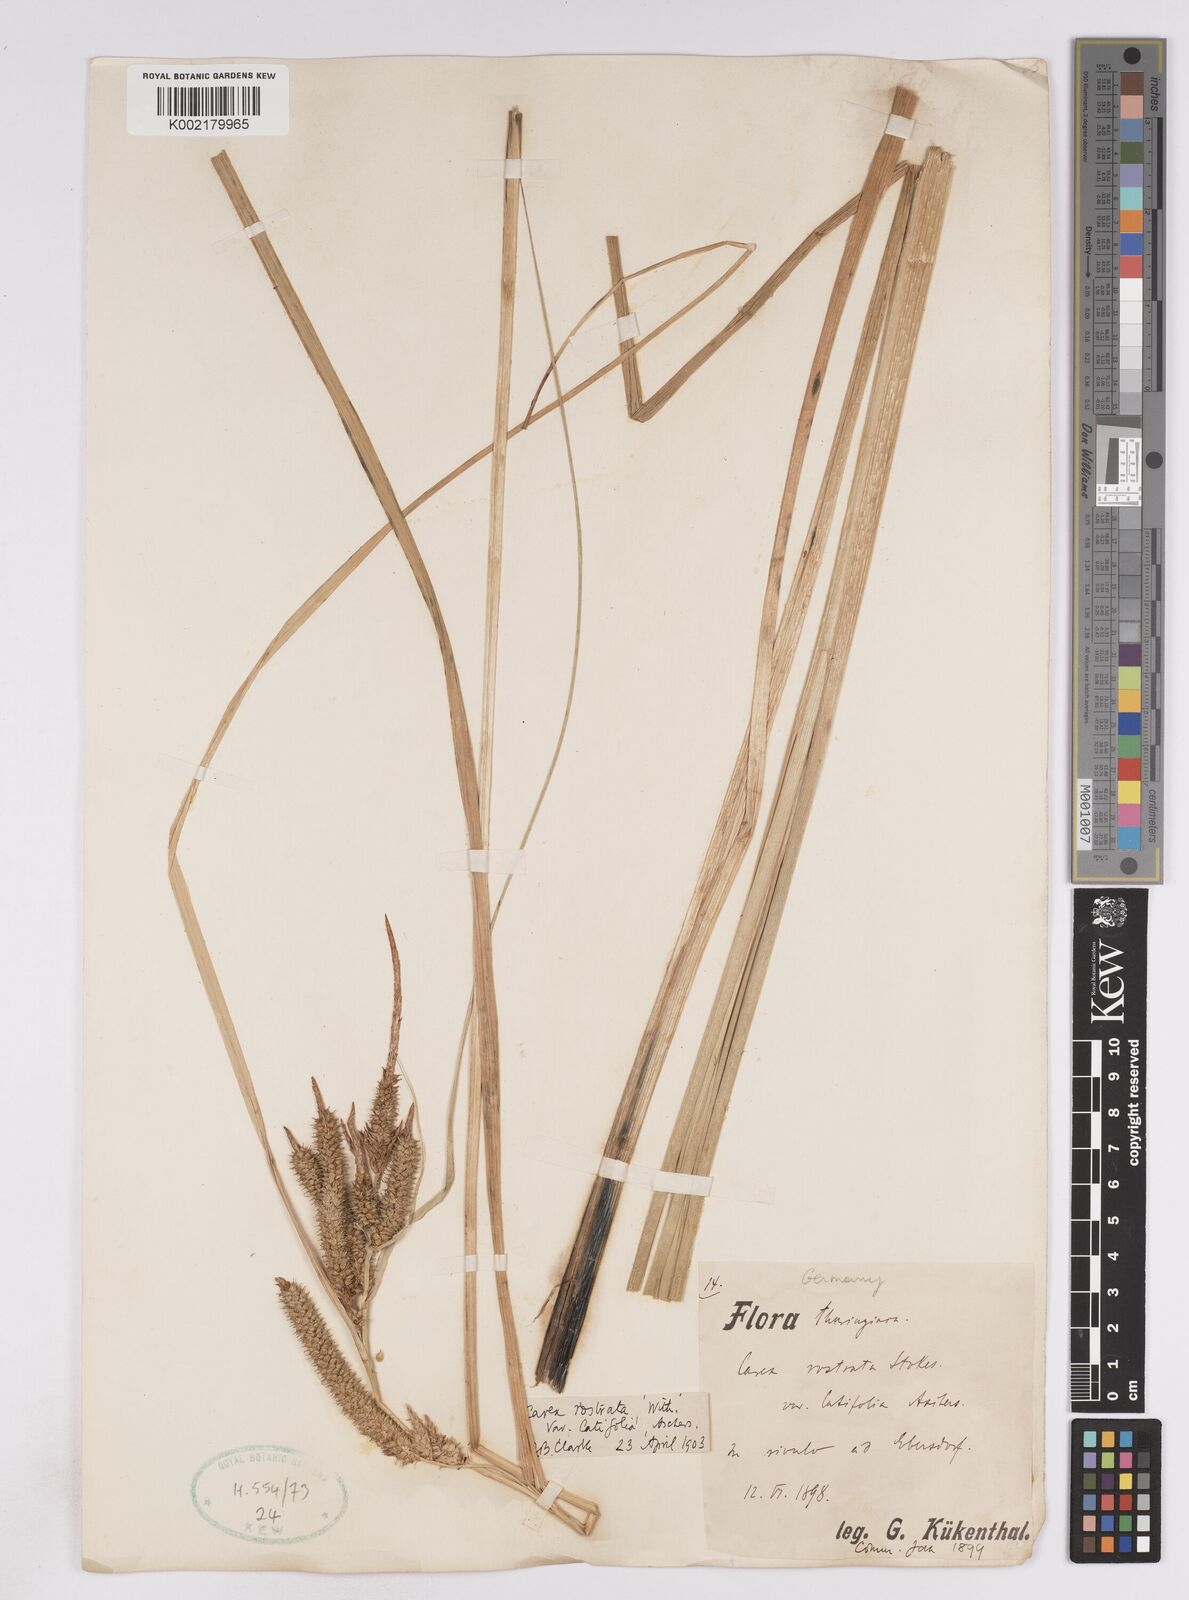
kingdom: Plantae
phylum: Tracheophyta
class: Liliopsida
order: Poales
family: Cyperaceae
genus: Carex
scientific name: Carex utriculata
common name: Beaked sedge
